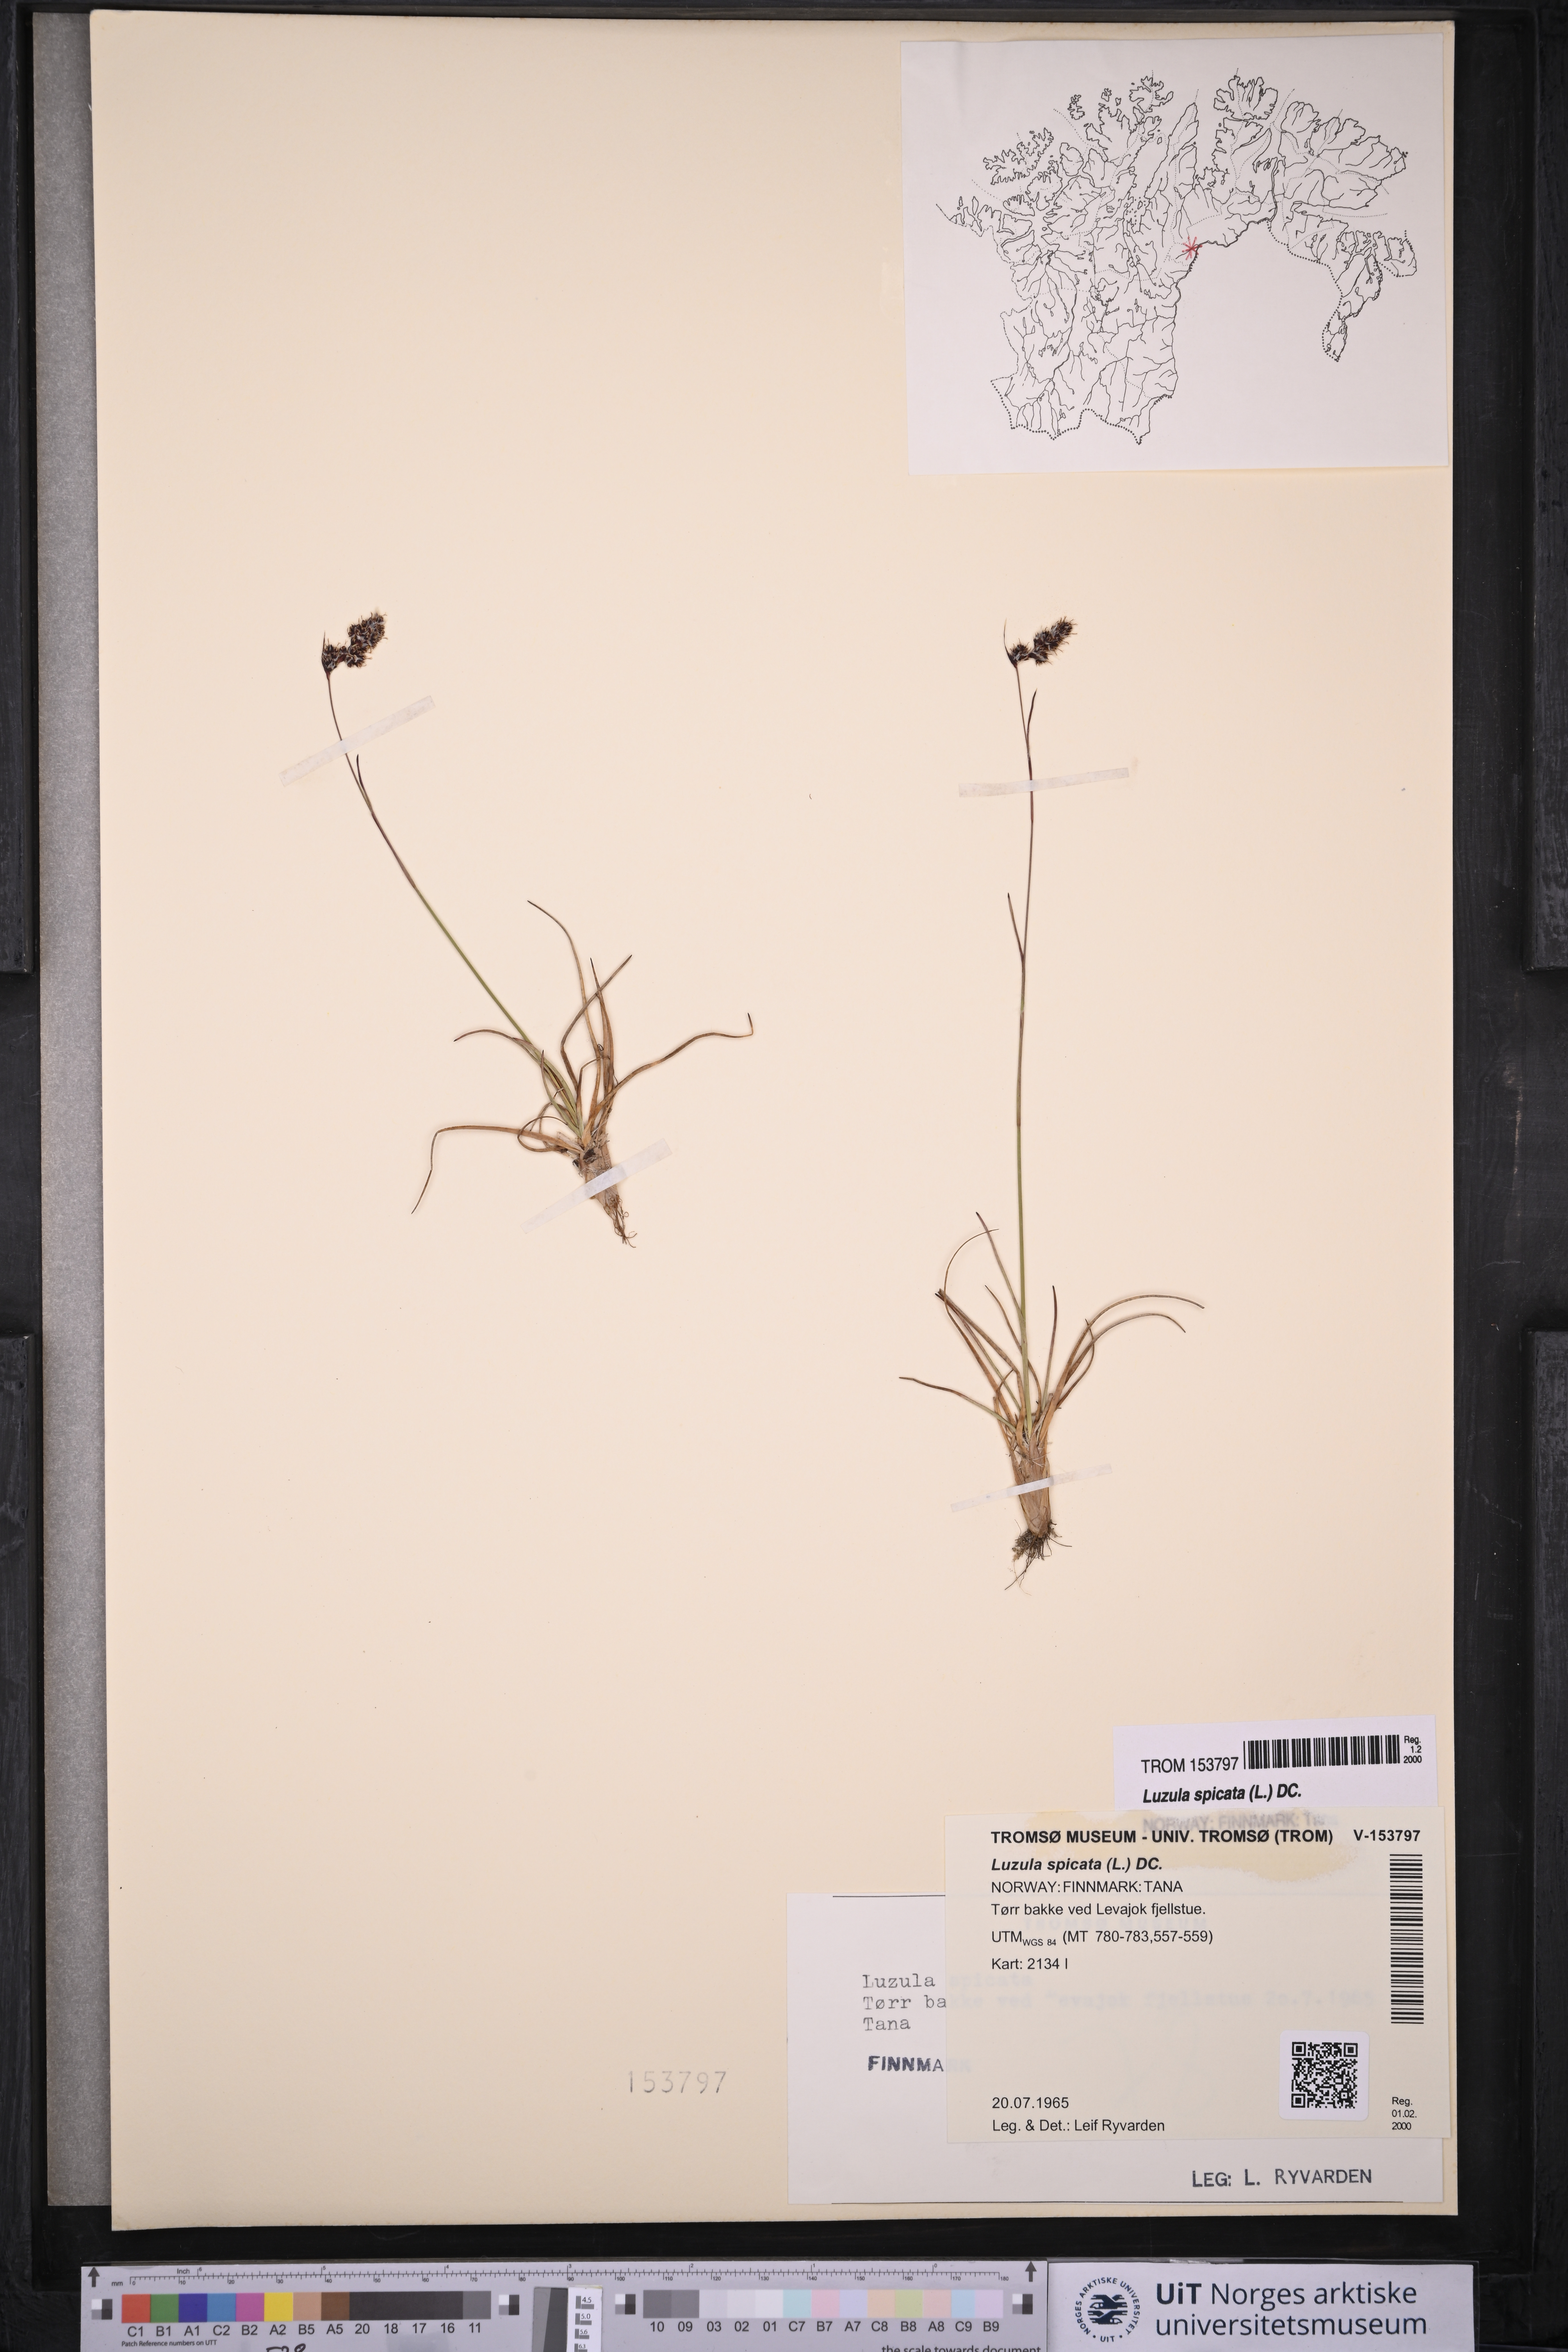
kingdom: Plantae
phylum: Tracheophyta
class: Liliopsida
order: Poales
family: Juncaceae
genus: Luzula
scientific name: Luzula spicata
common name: Spiked wood-rush
